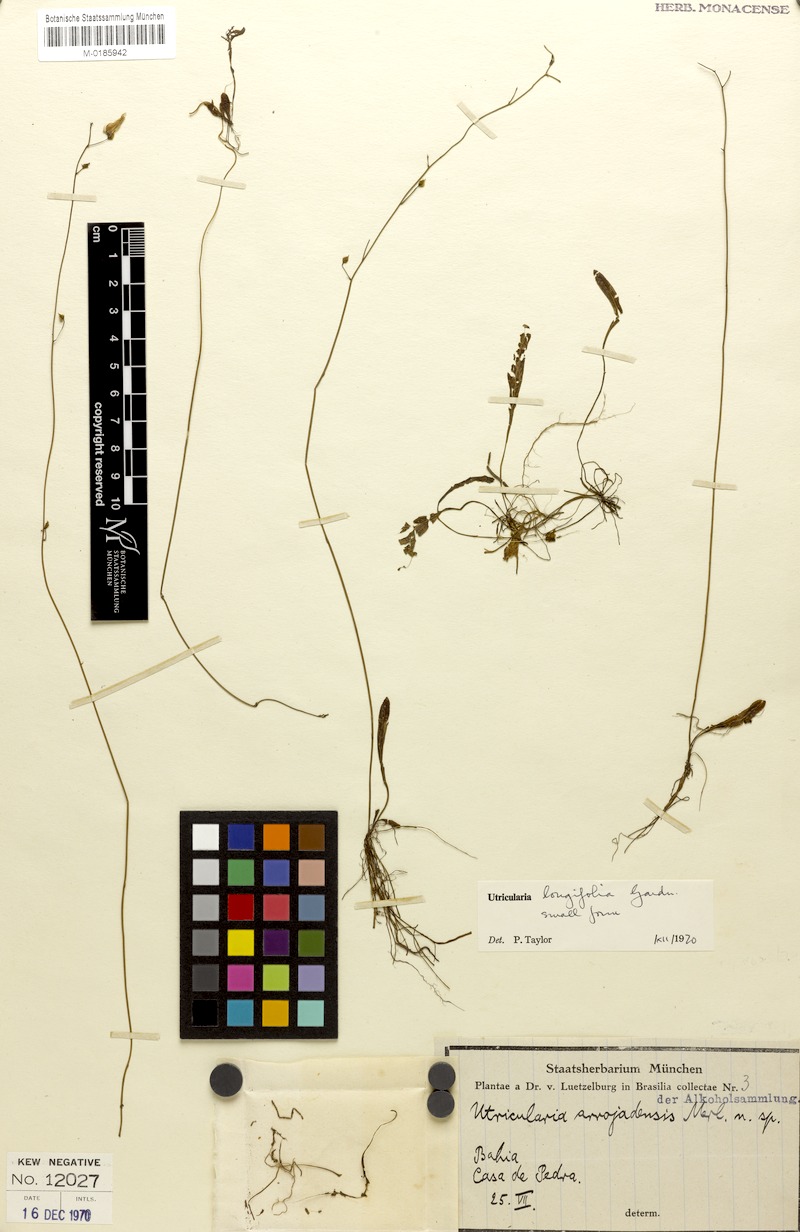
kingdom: Plantae
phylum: Tracheophyta
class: Magnoliopsida
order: Lamiales
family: Lentibulariaceae
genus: Utricularia
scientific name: Utricularia longifolia
